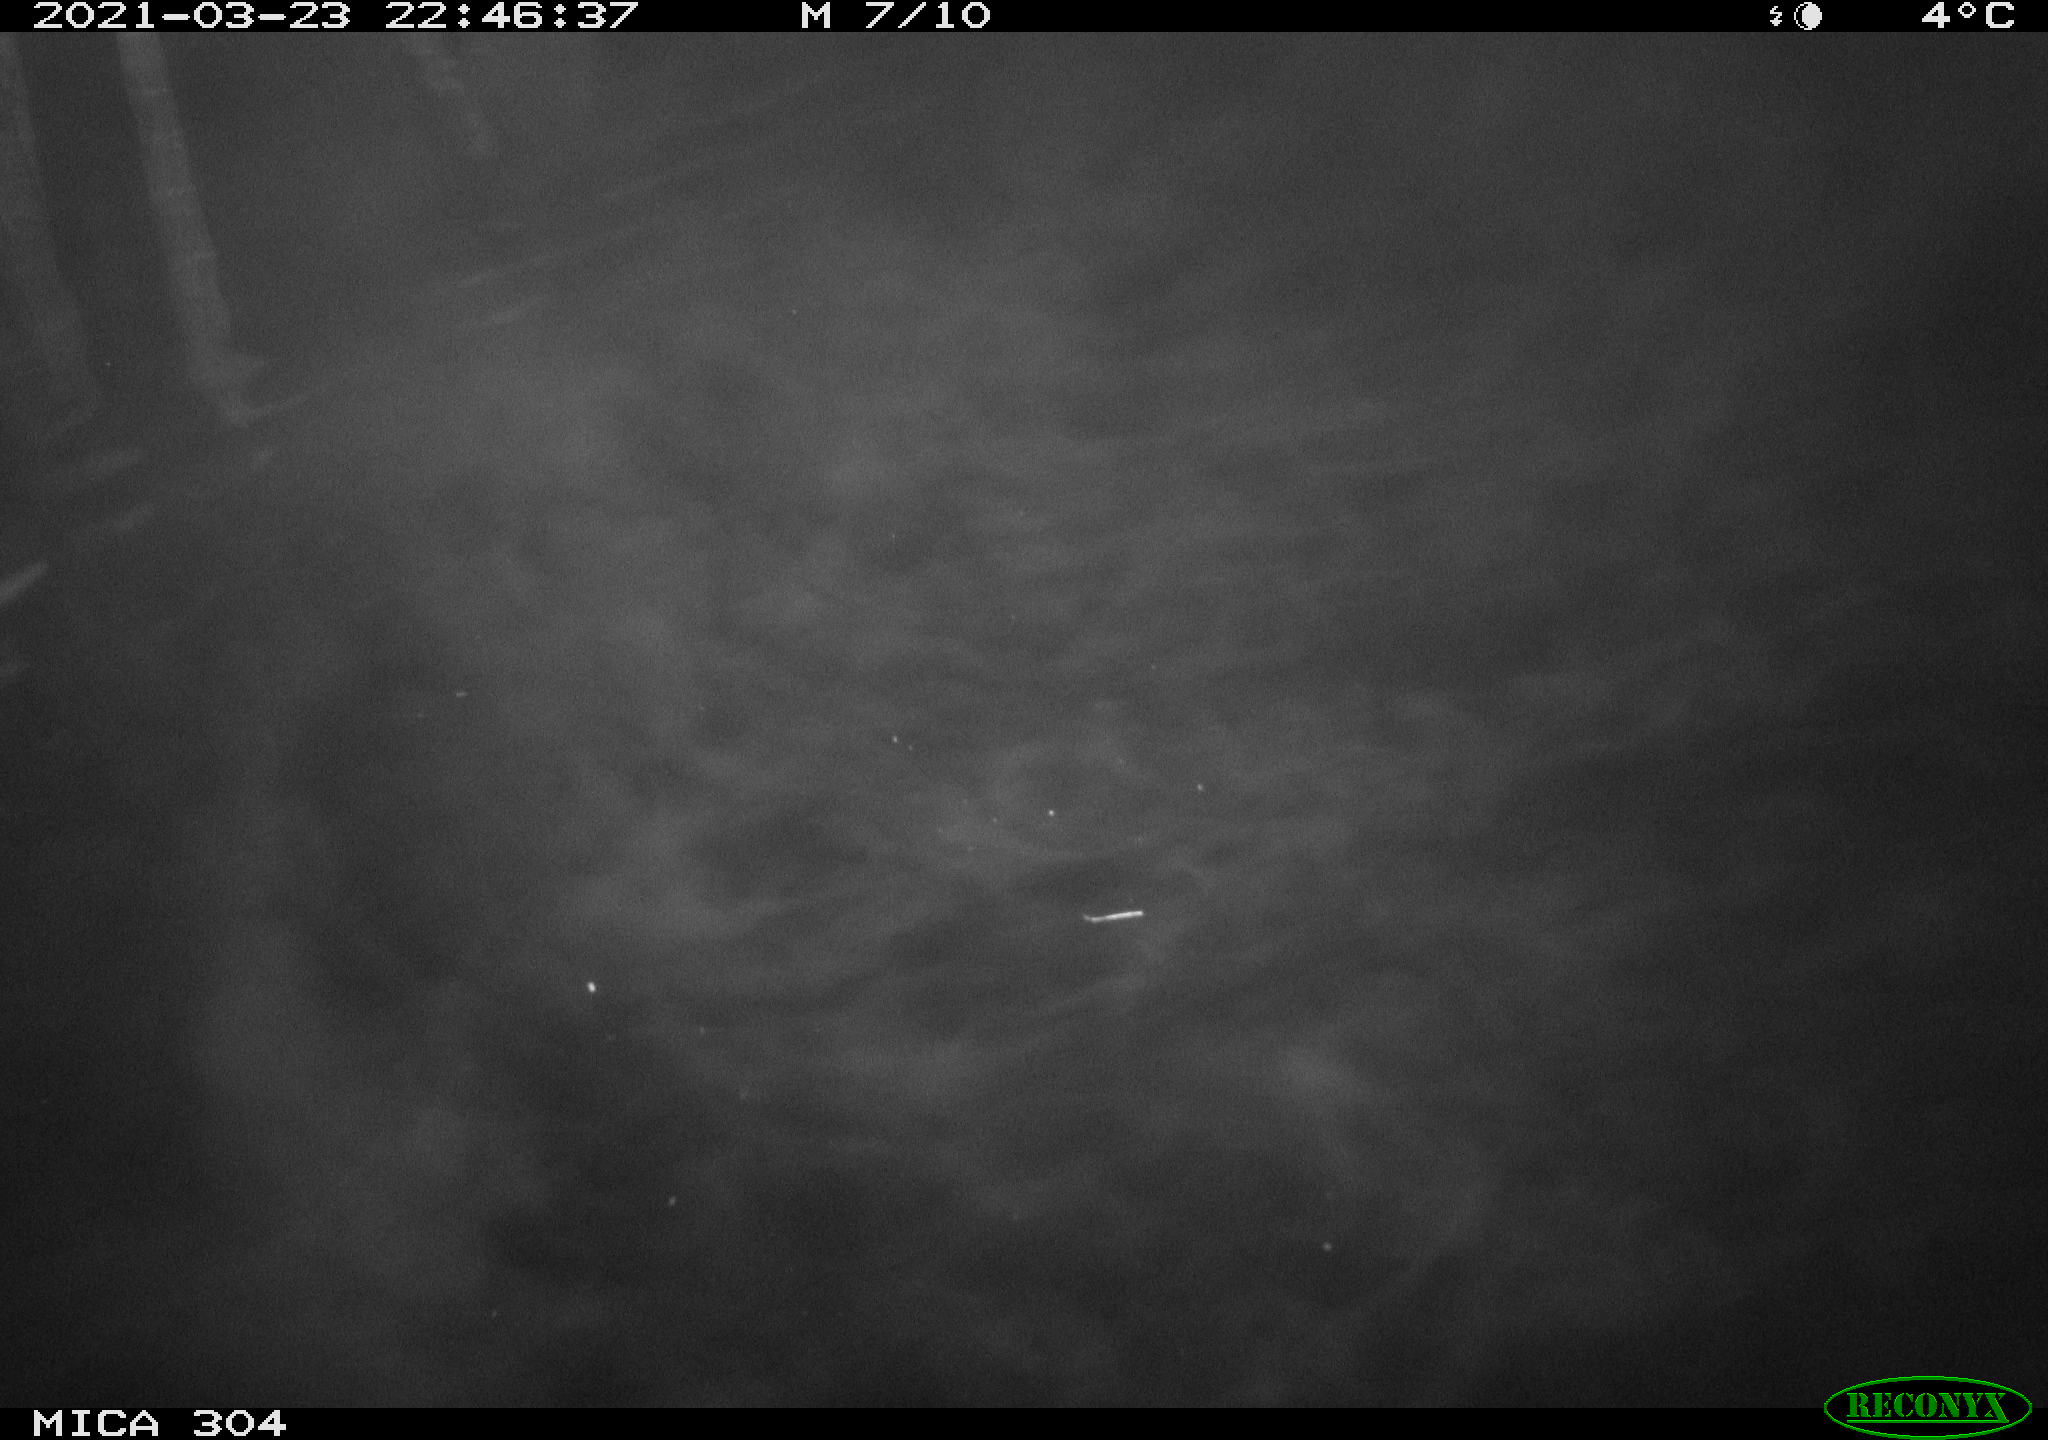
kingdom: Animalia
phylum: Chordata
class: Mammalia
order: Rodentia
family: Cricetidae
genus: Ondatra
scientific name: Ondatra zibethicus
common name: Muskrat
